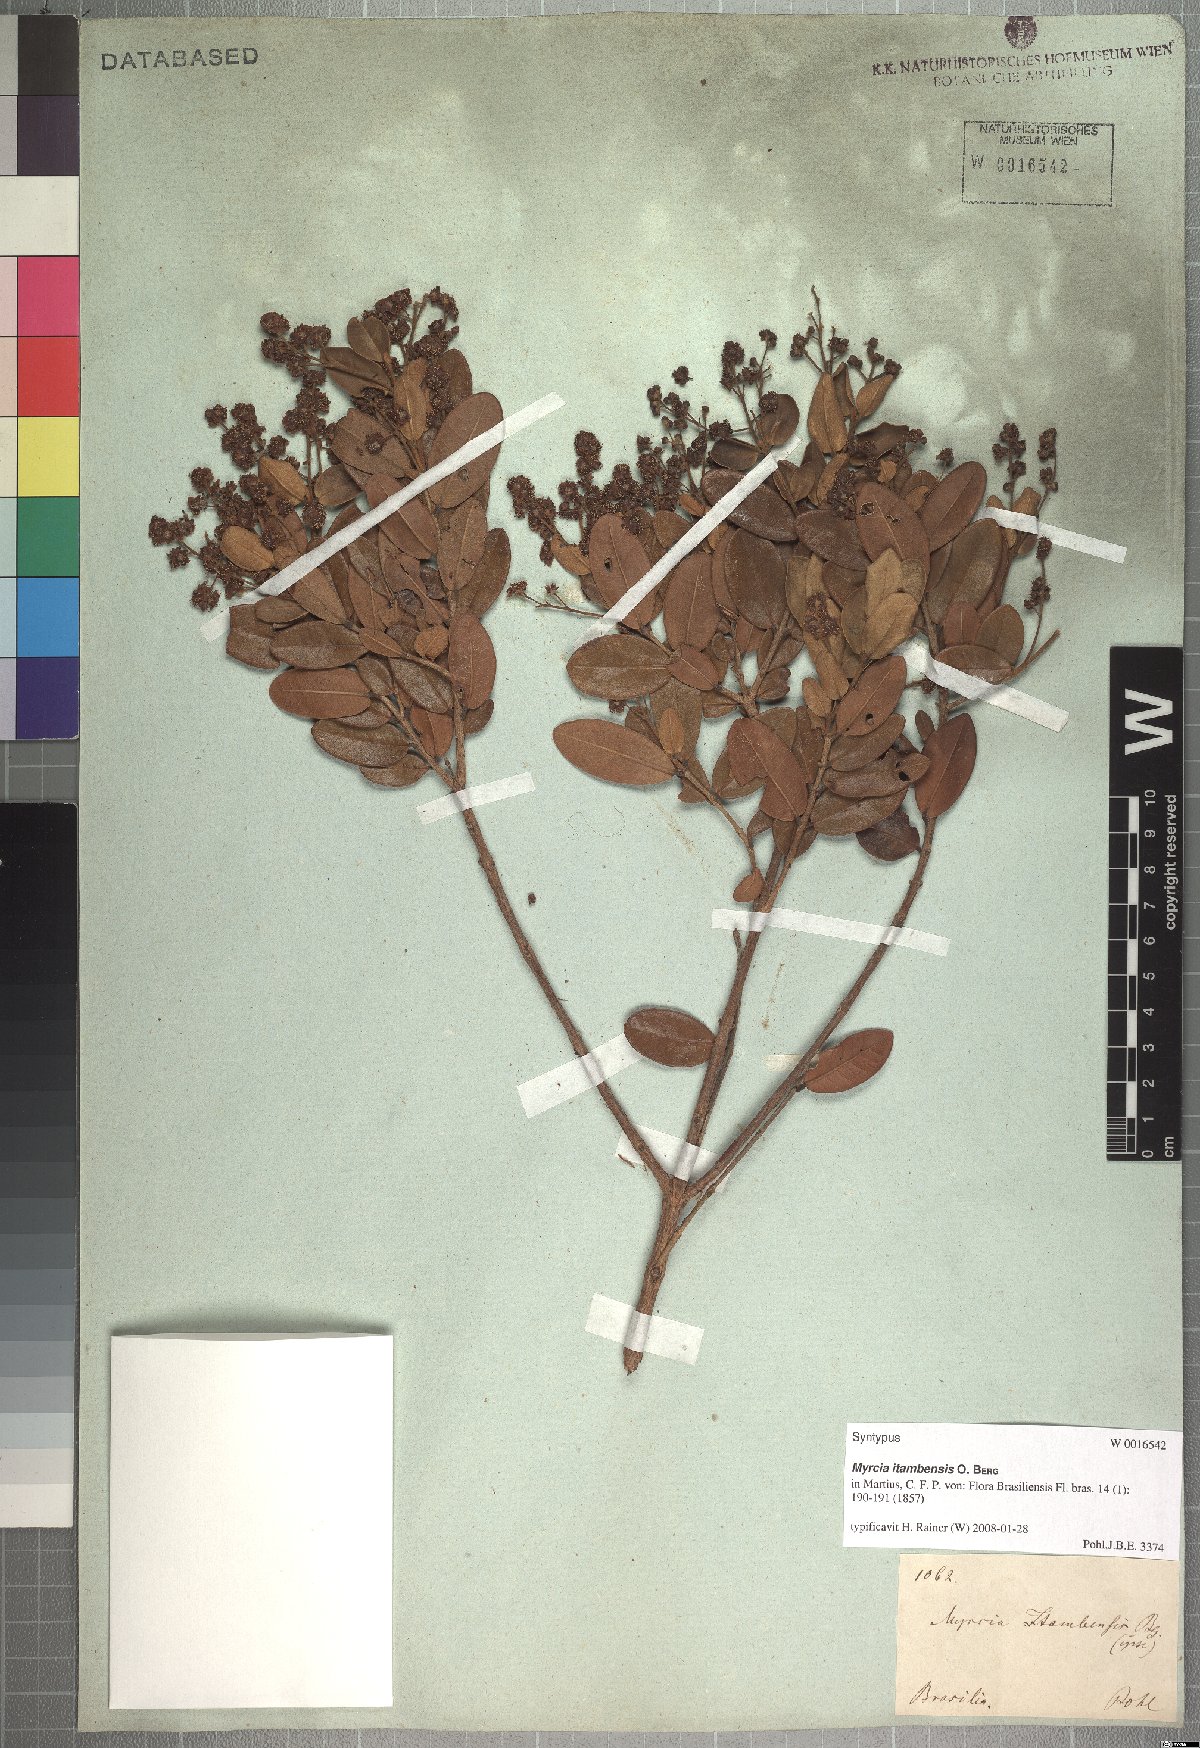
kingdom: Plantae
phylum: Tracheophyta
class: Magnoliopsida
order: Myrtales
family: Myrtaceae
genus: Myrcia
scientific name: Myrcia retorta
